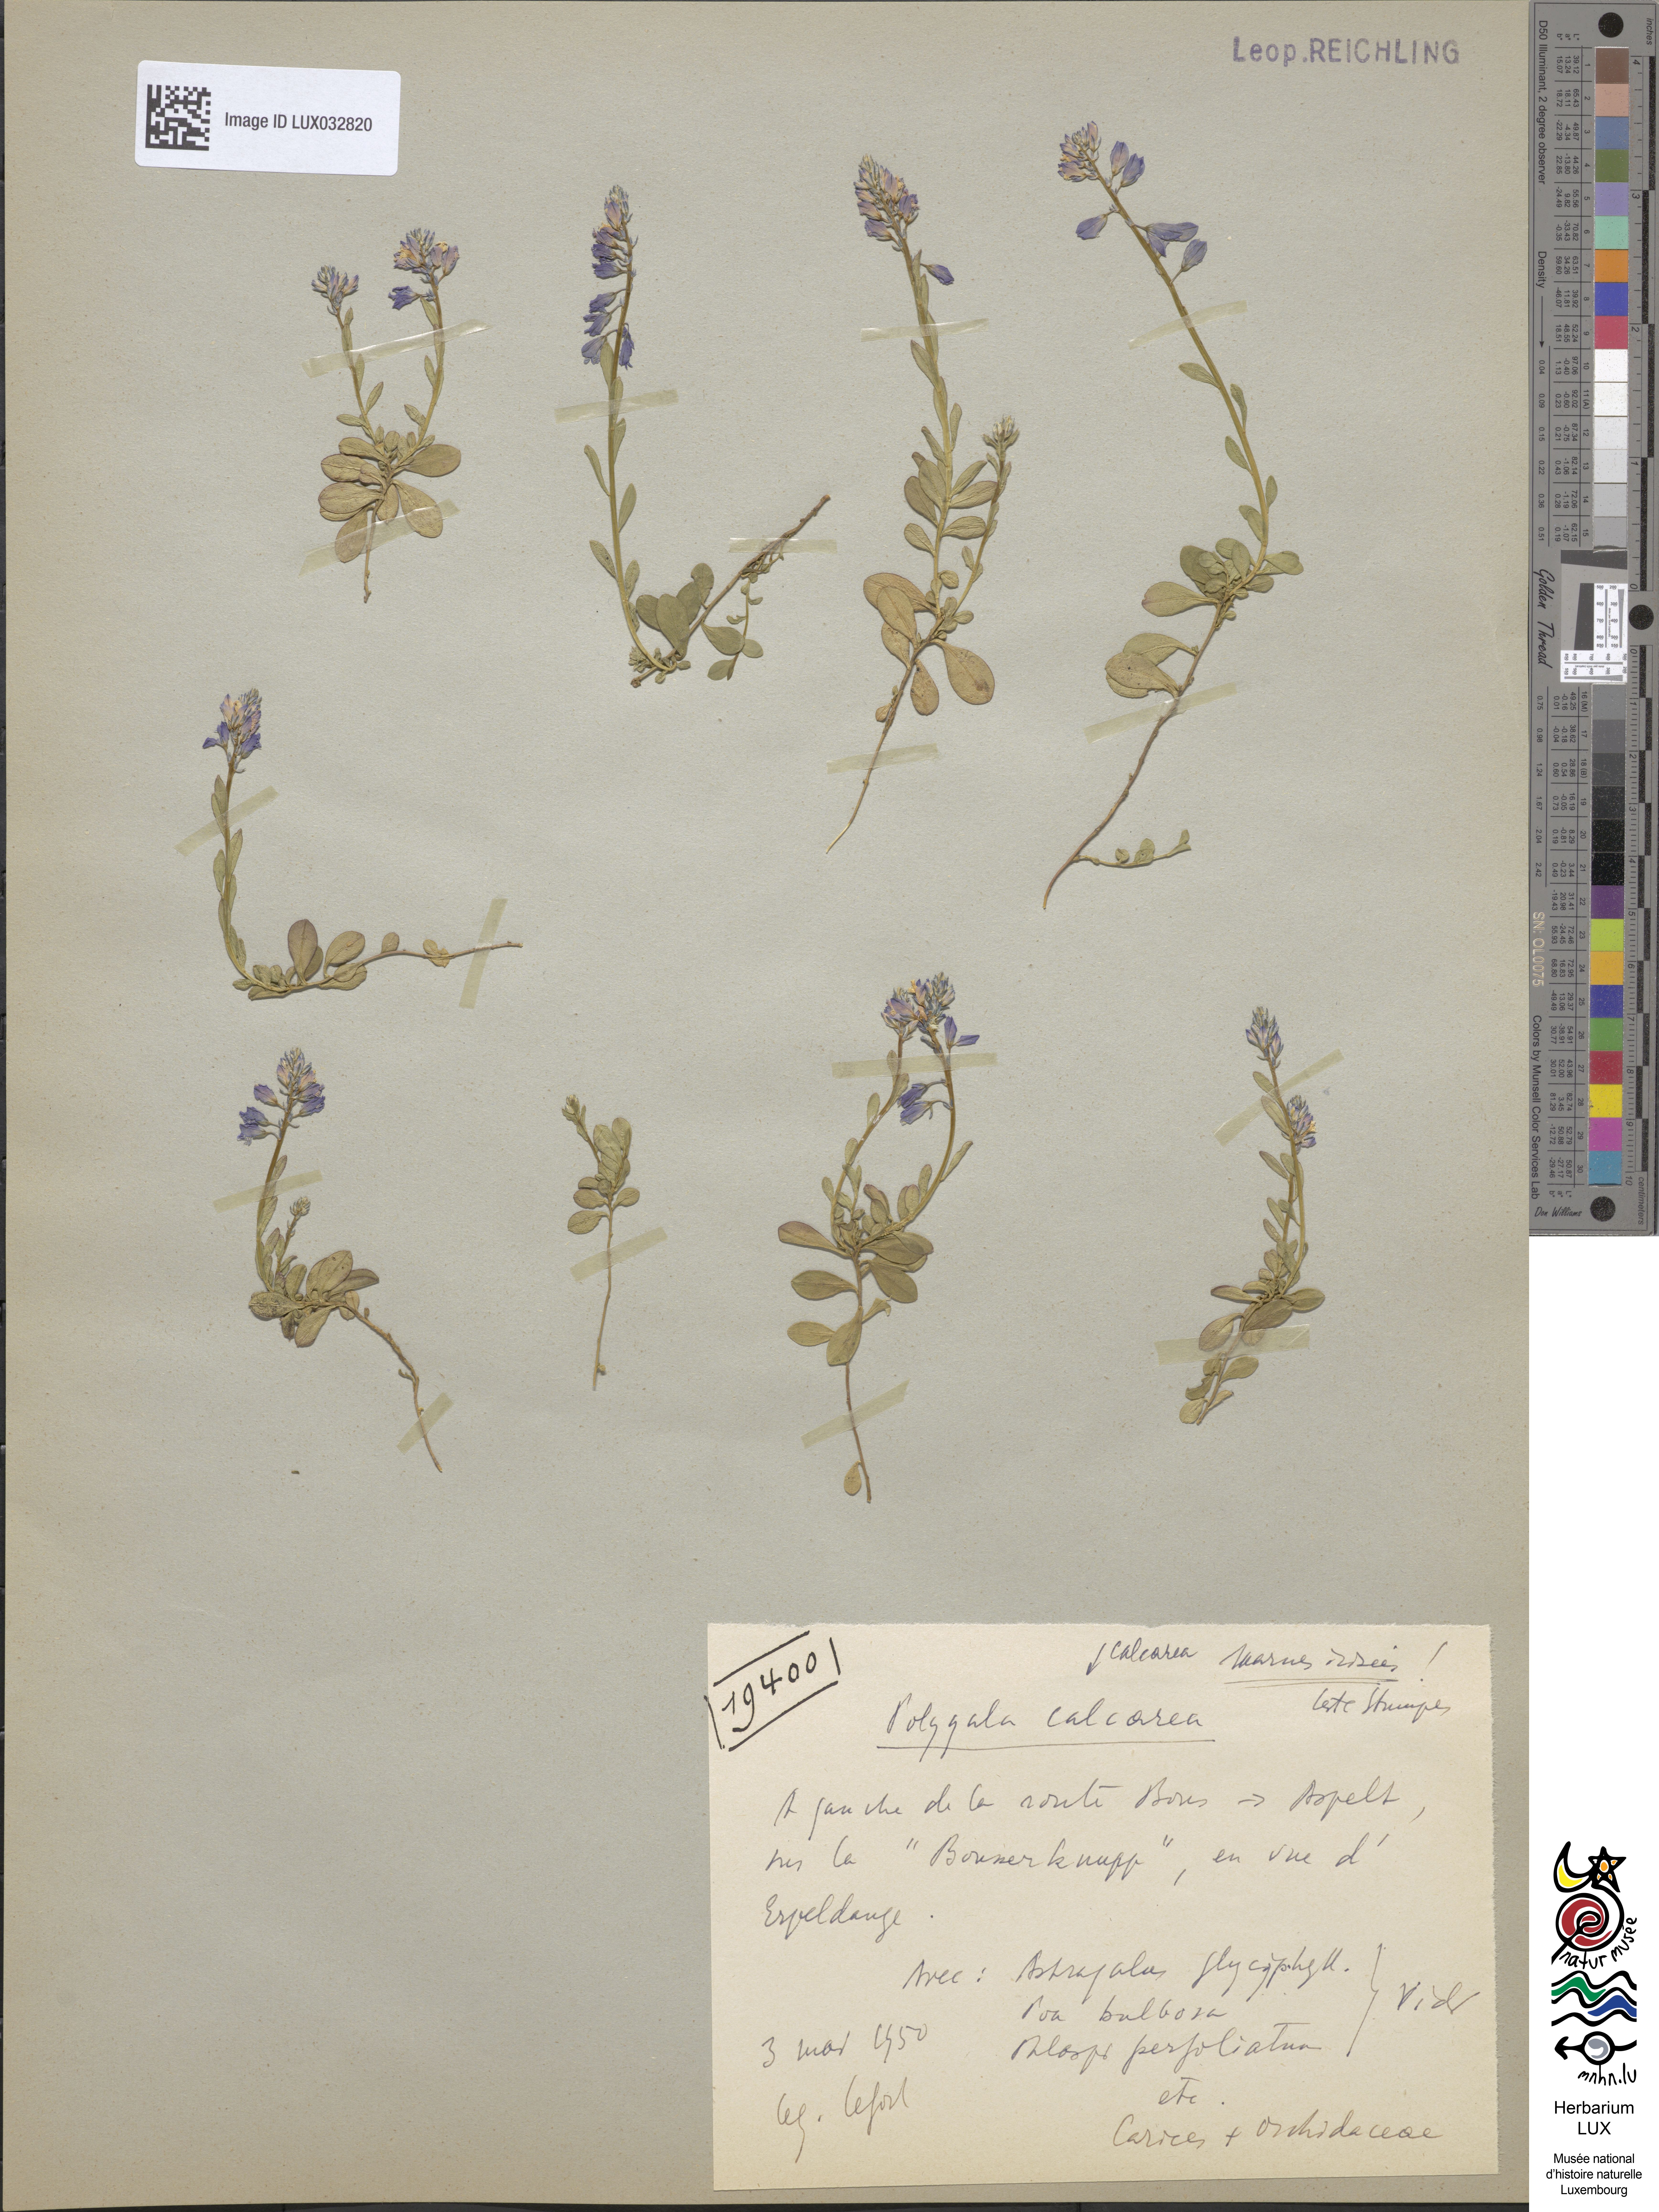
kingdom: Plantae
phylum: Tracheophyta
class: Magnoliopsida
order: Fabales
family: Polygalaceae
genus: Polygala
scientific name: Polygala calcarea
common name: Chalk milkwort
